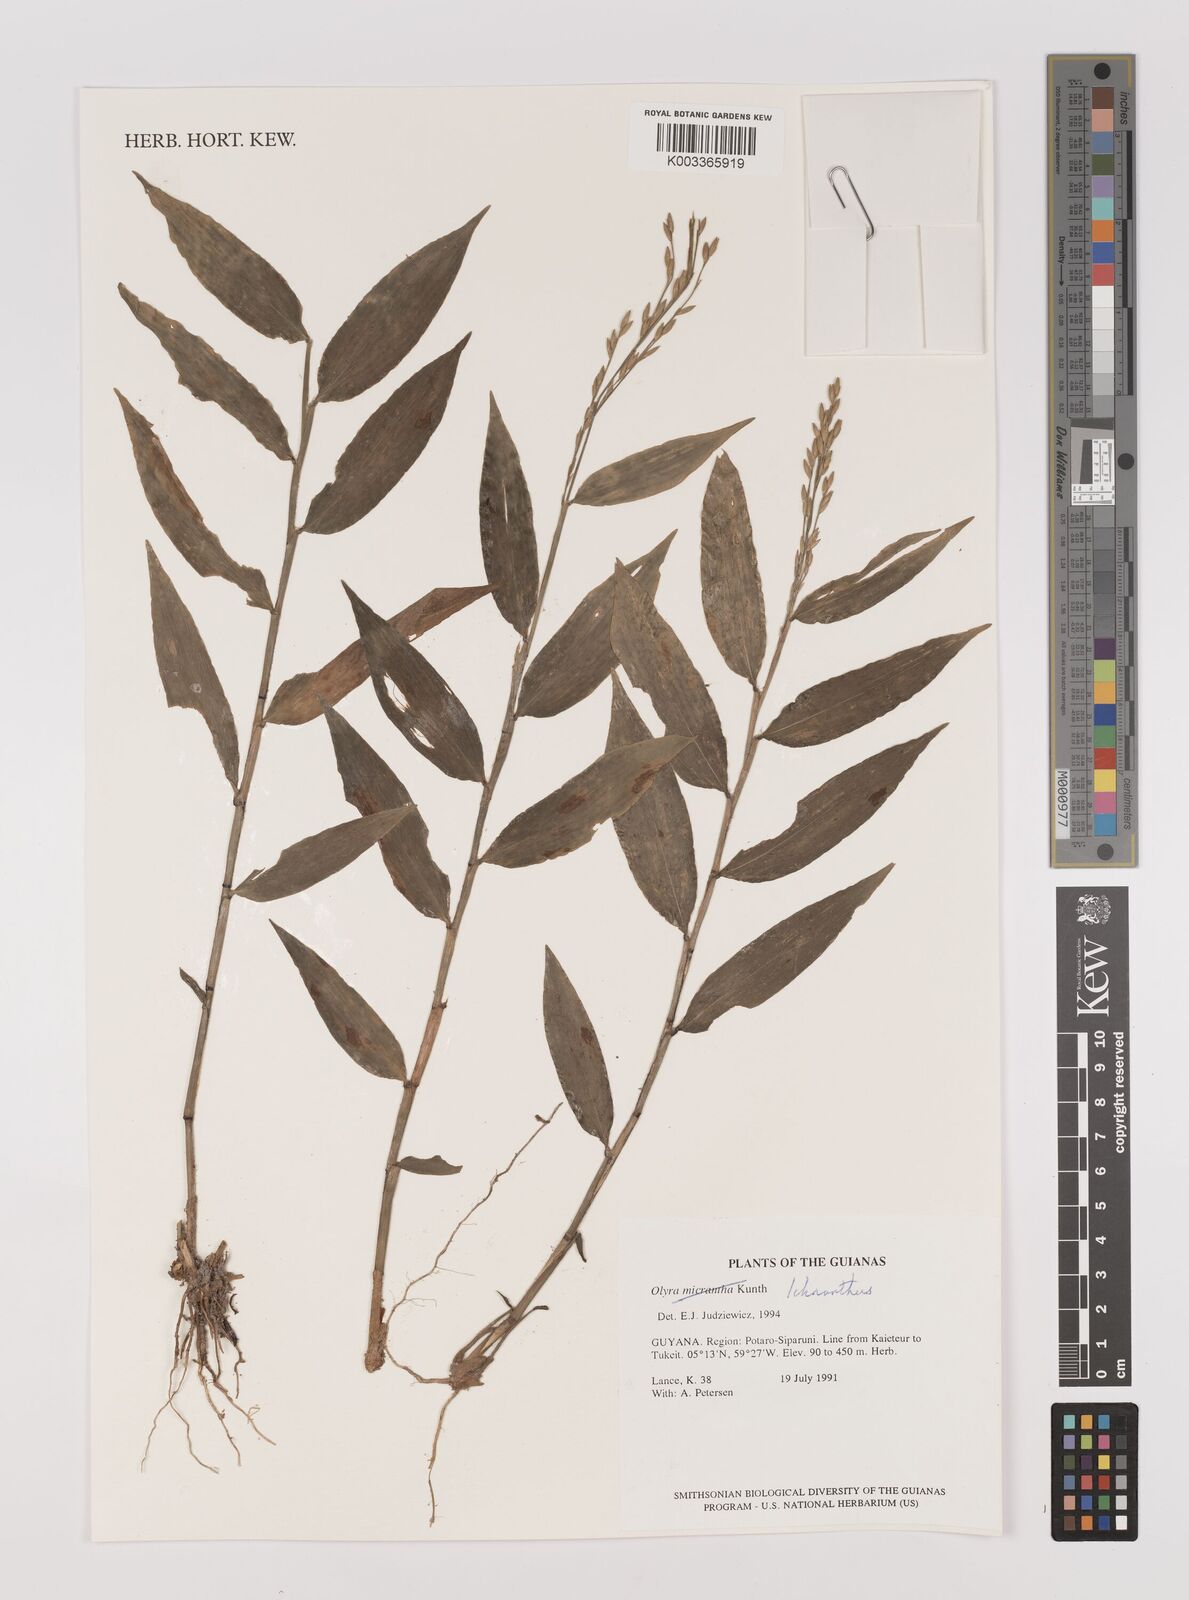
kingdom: Plantae
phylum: Tracheophyta
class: Liliopsida
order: Poales
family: Poaceae
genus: Ichnanthus
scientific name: Ichnanthus nemoralis
